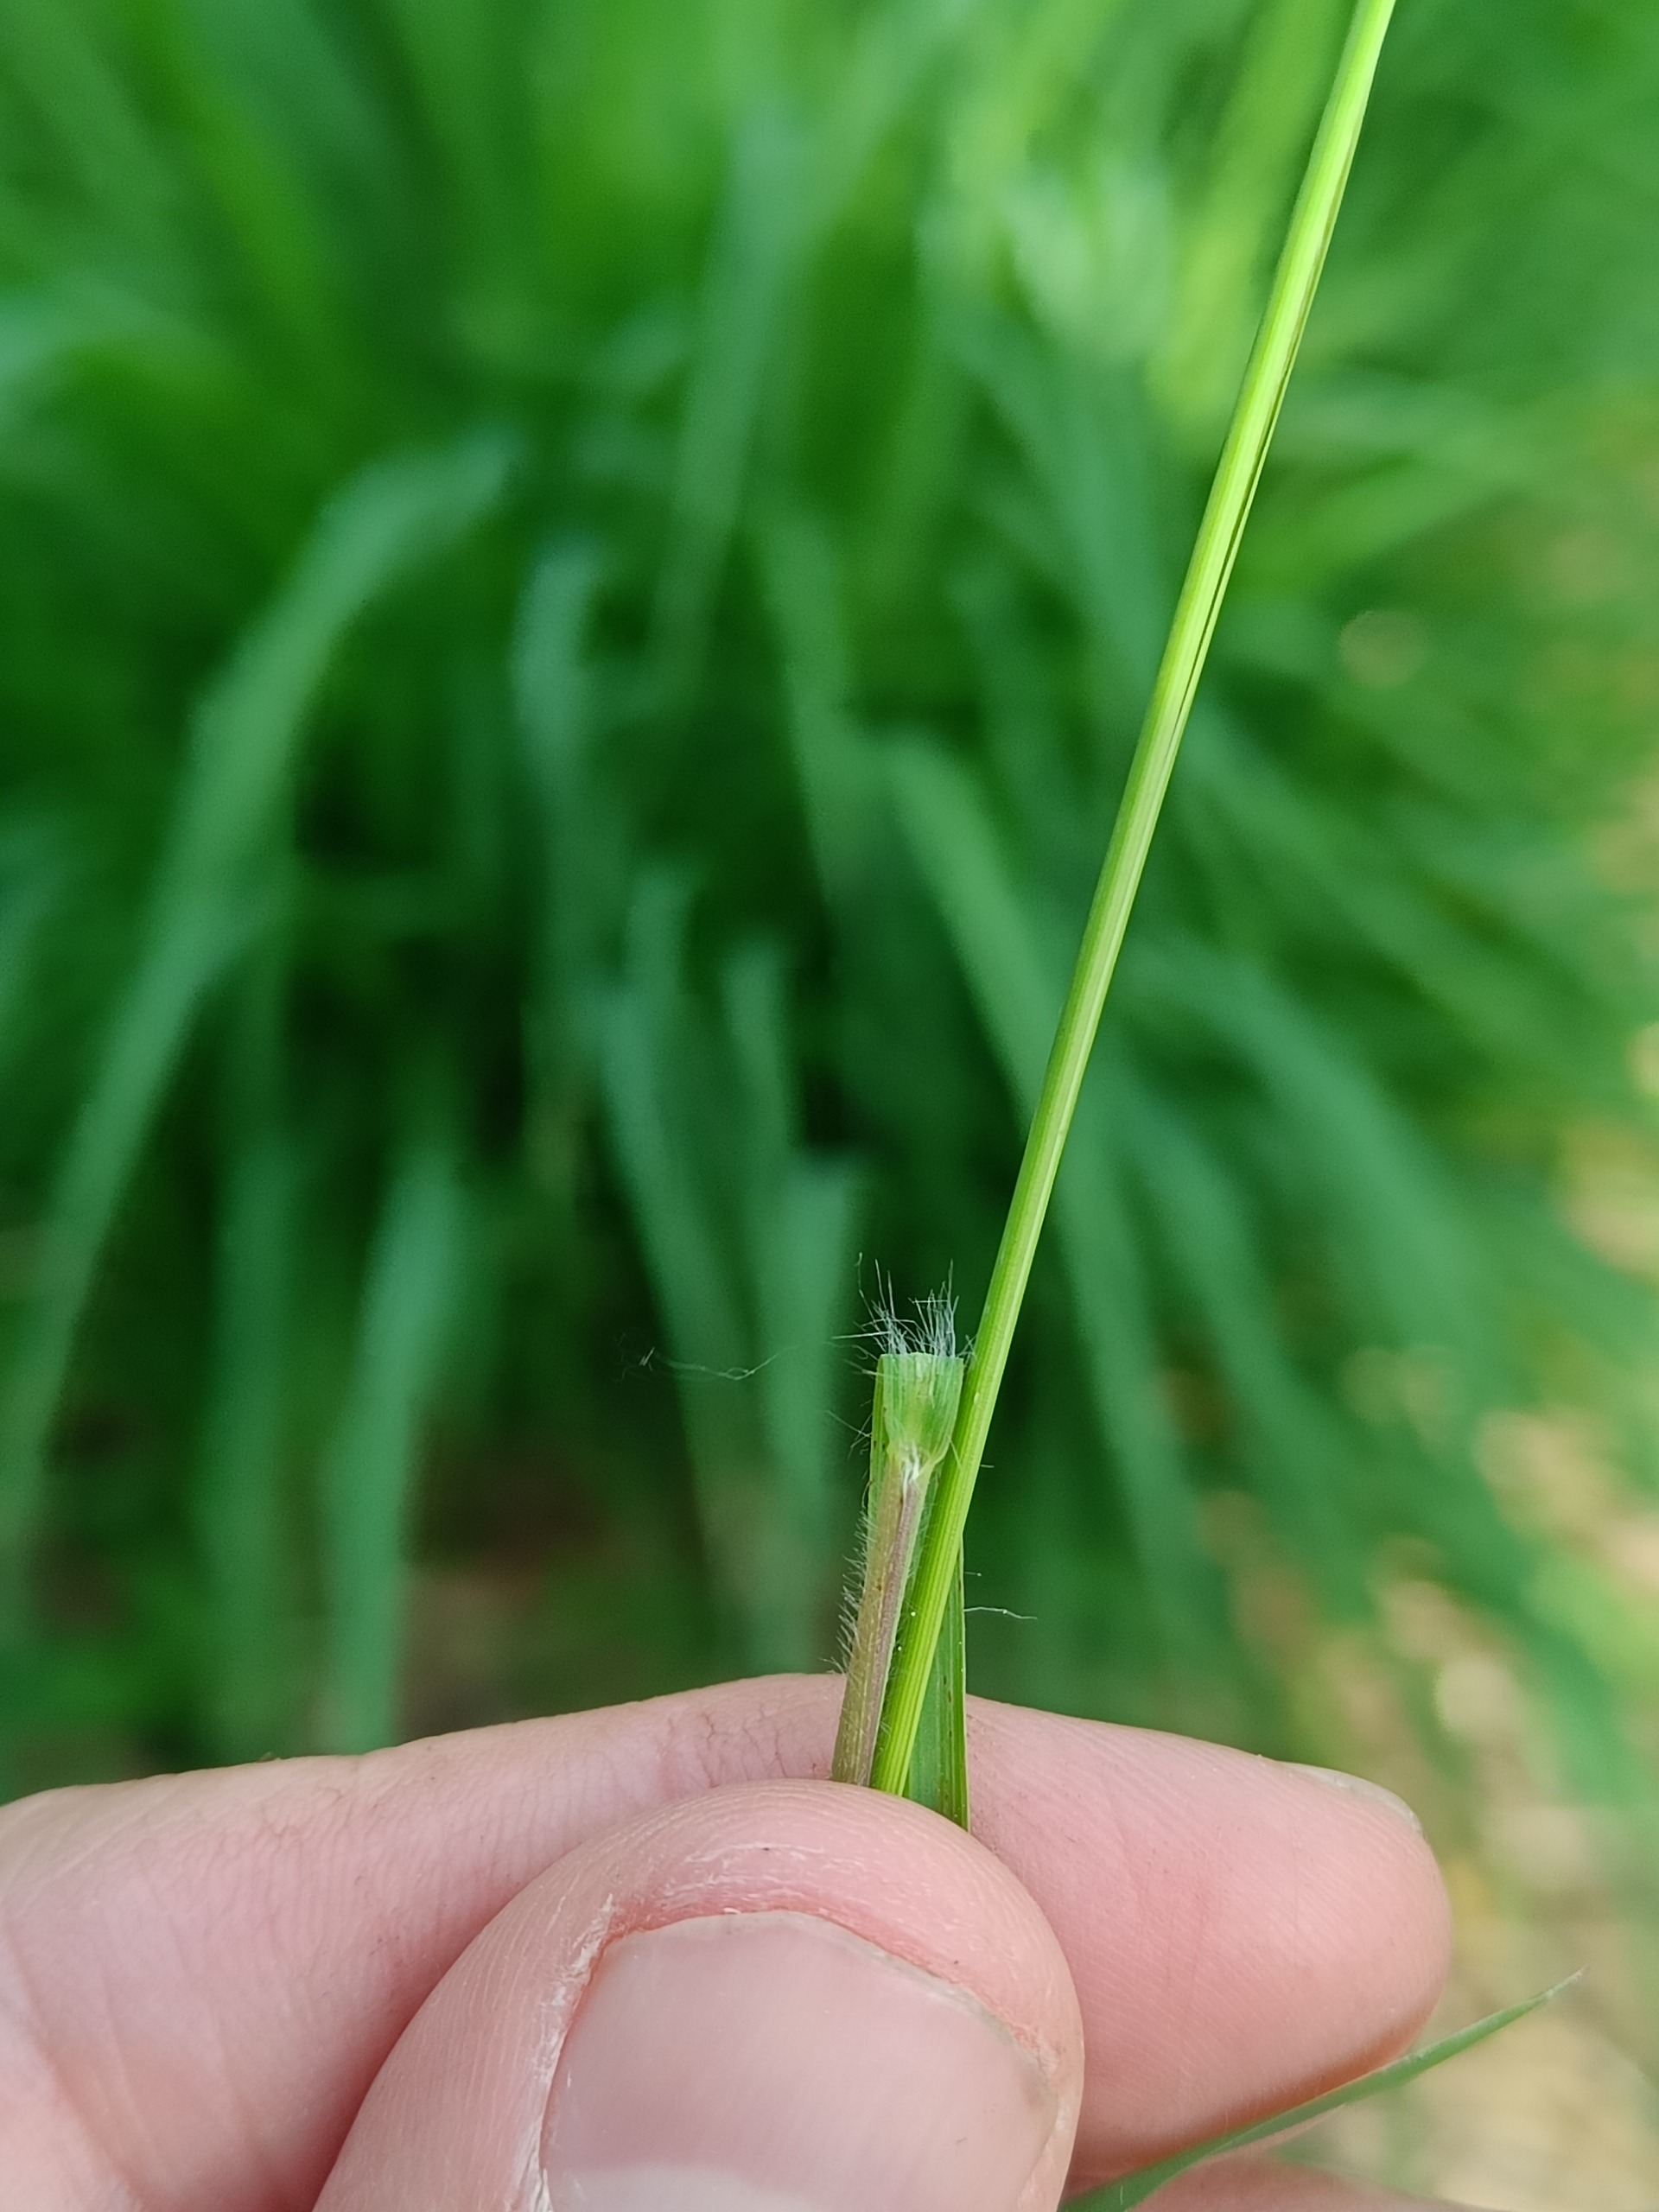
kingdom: Plantae
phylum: Tracheophyta
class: Liliopsida
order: Poales
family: Poaceae
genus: Molinia
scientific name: Molinia caerulea
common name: Blåtop
